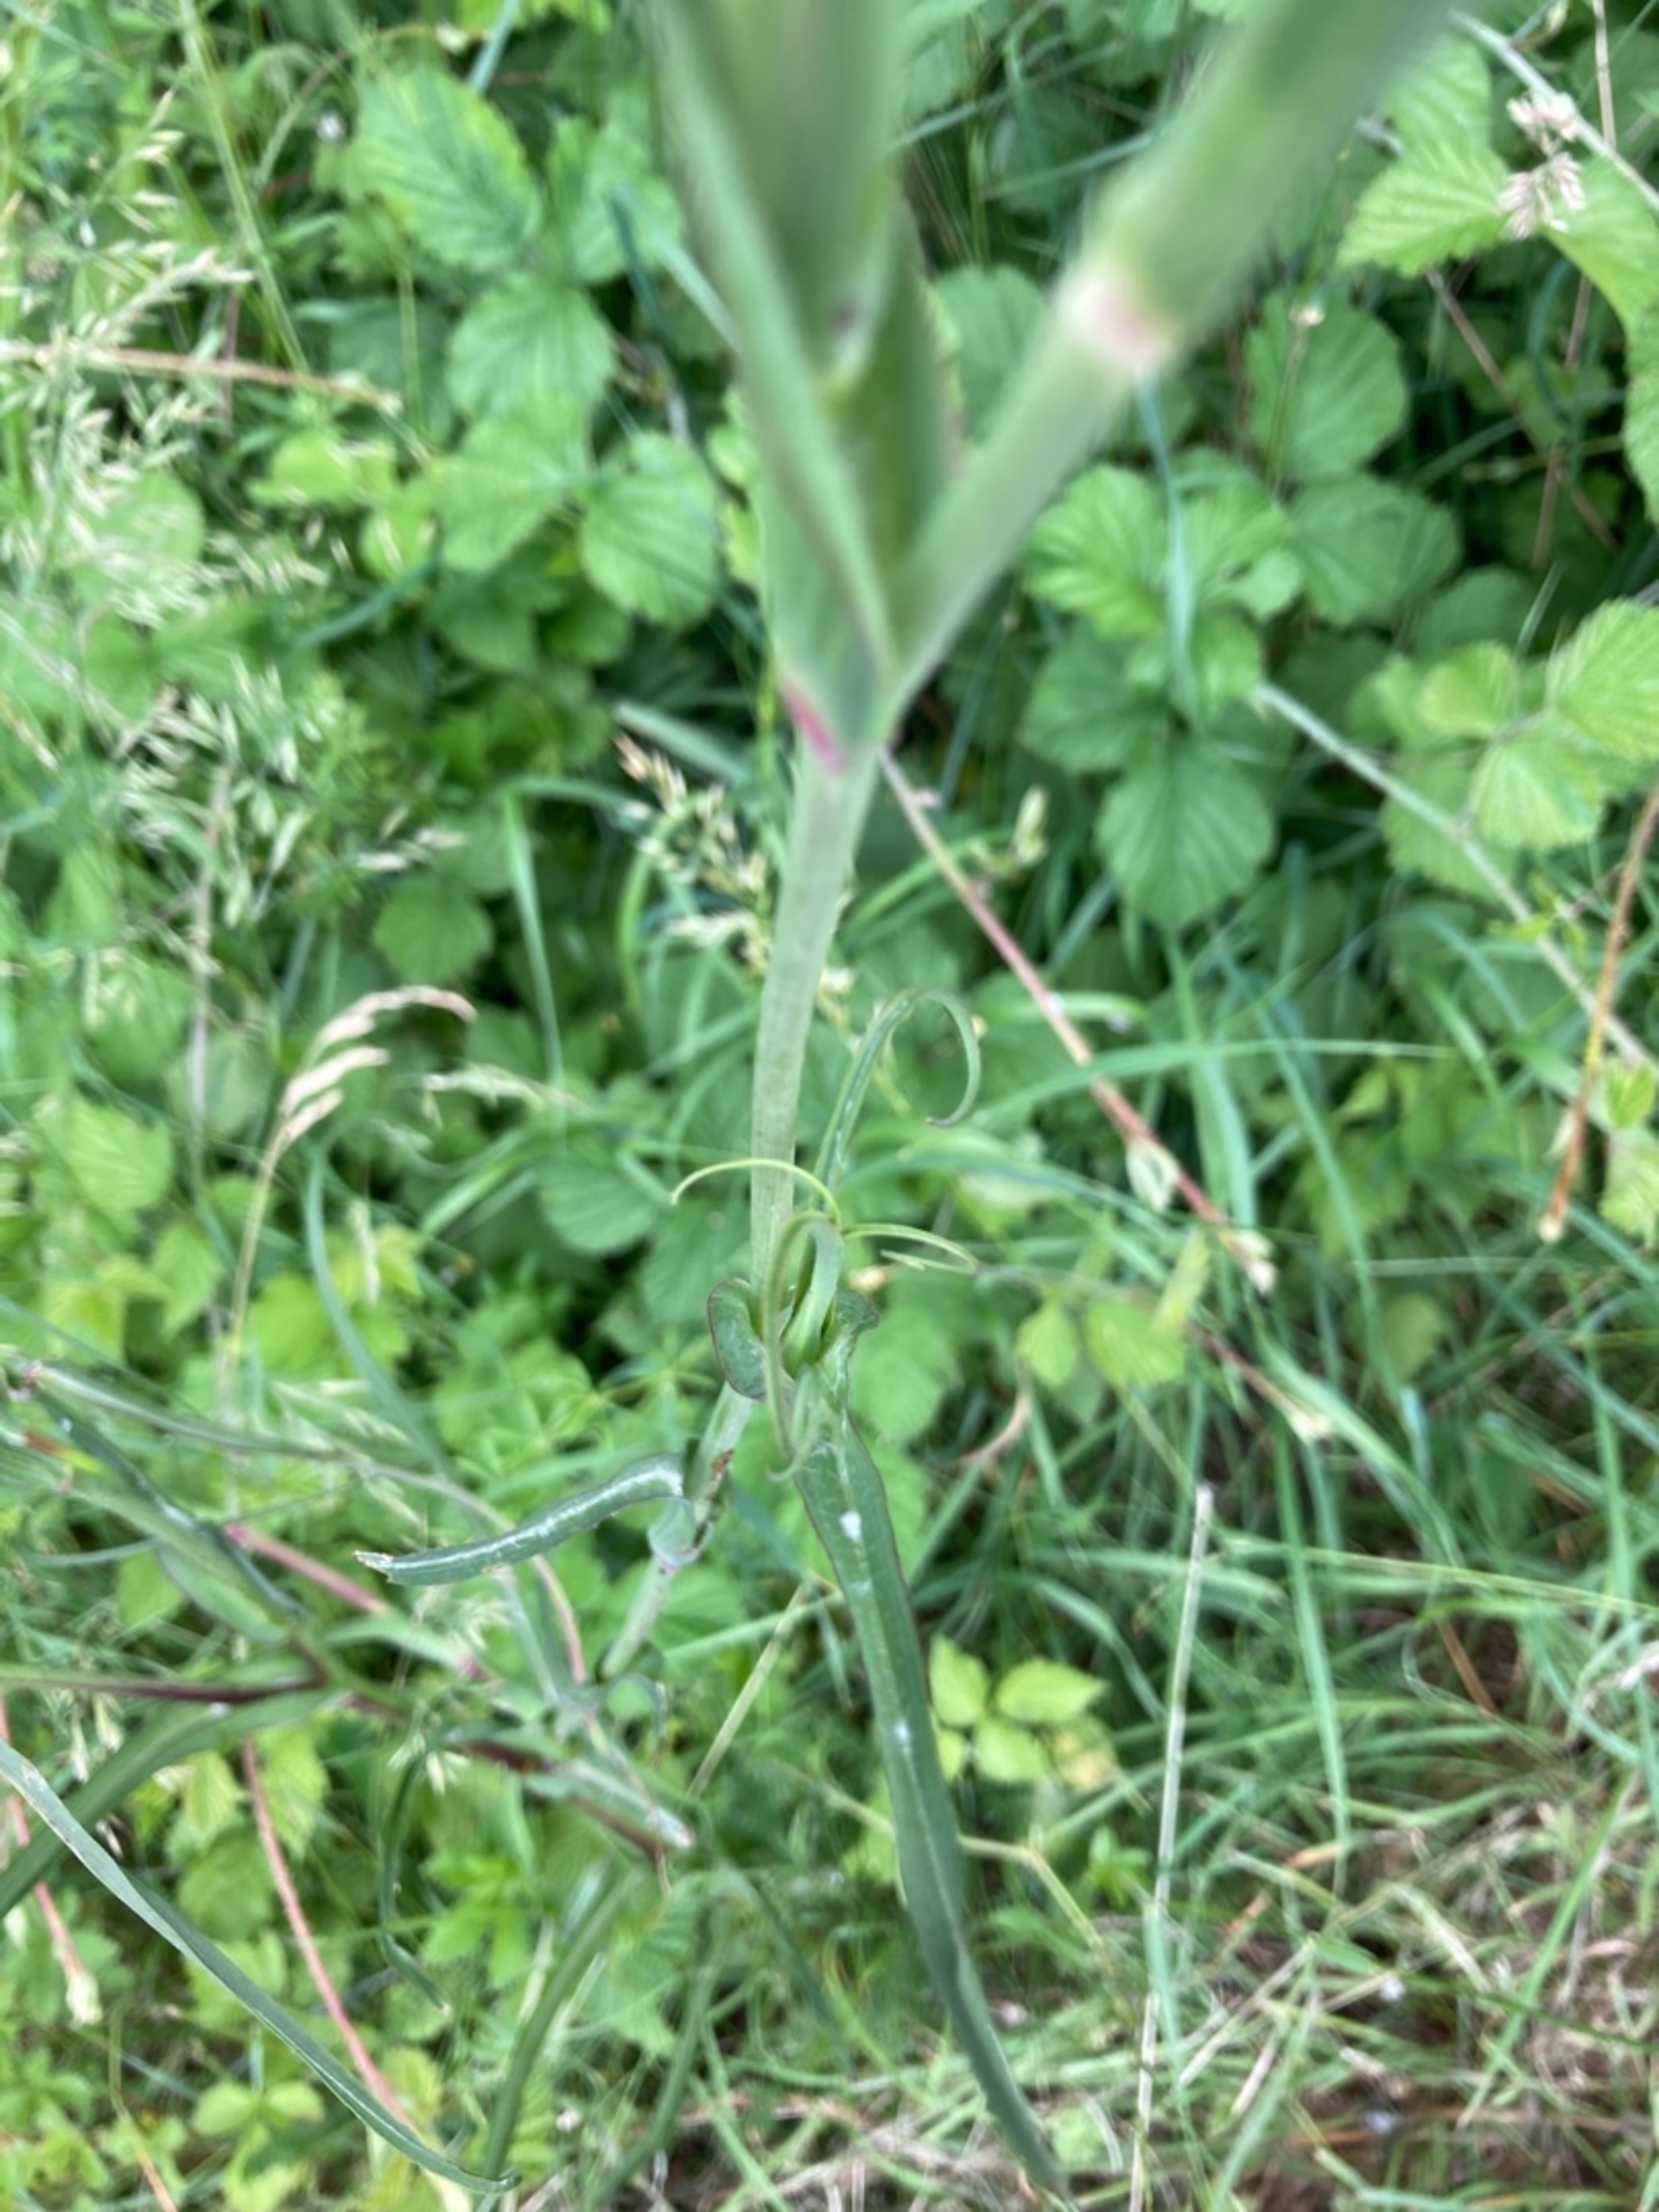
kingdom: Plantae
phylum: Tracheophyta
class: Magnoliopsida
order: Asterales
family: Asteraceae
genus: Tragopogon
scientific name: Tragopogon pratensis
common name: Eng-gedeskæg
